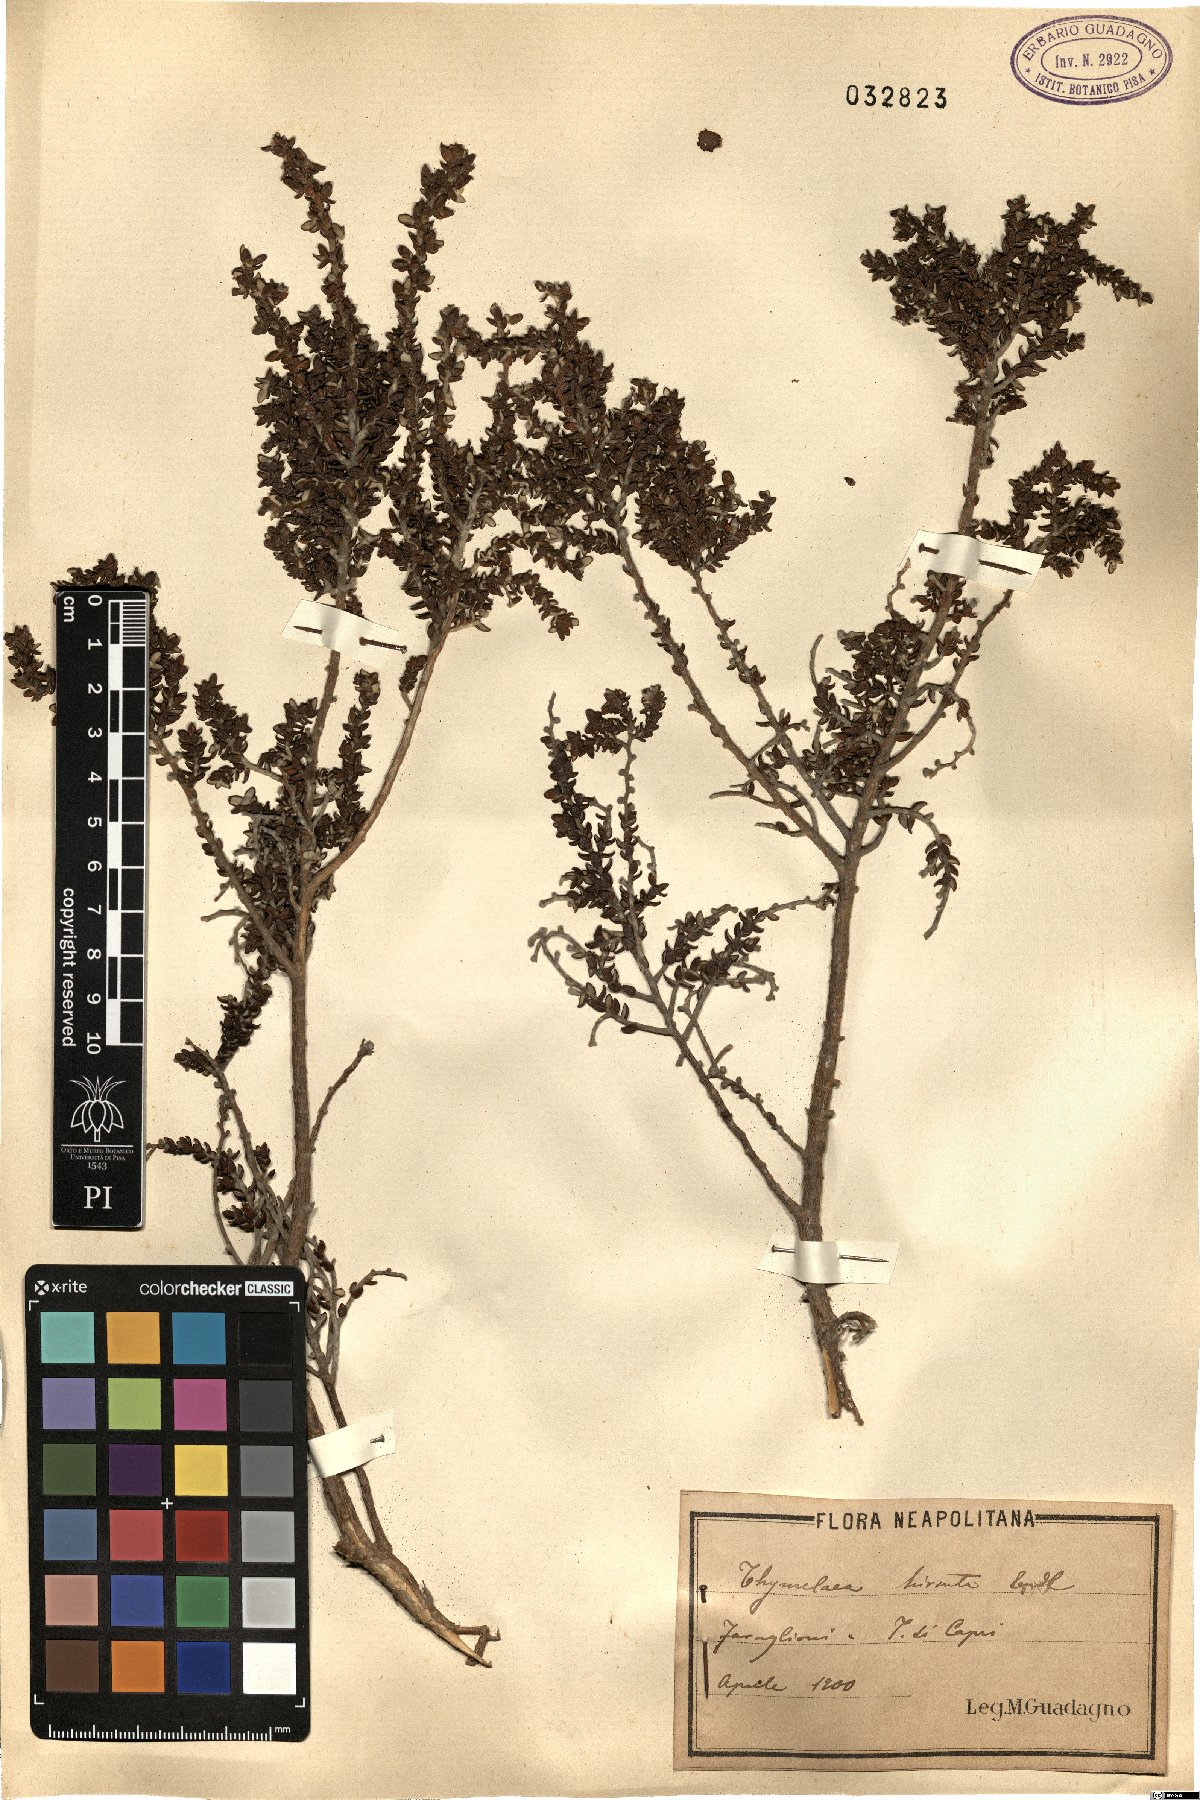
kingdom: Plantae
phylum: Tracheophyta
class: Magnoliopsida
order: Malvales
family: Thymelaeaceae
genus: Thymelaea
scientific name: Thymelaea hirsuta
